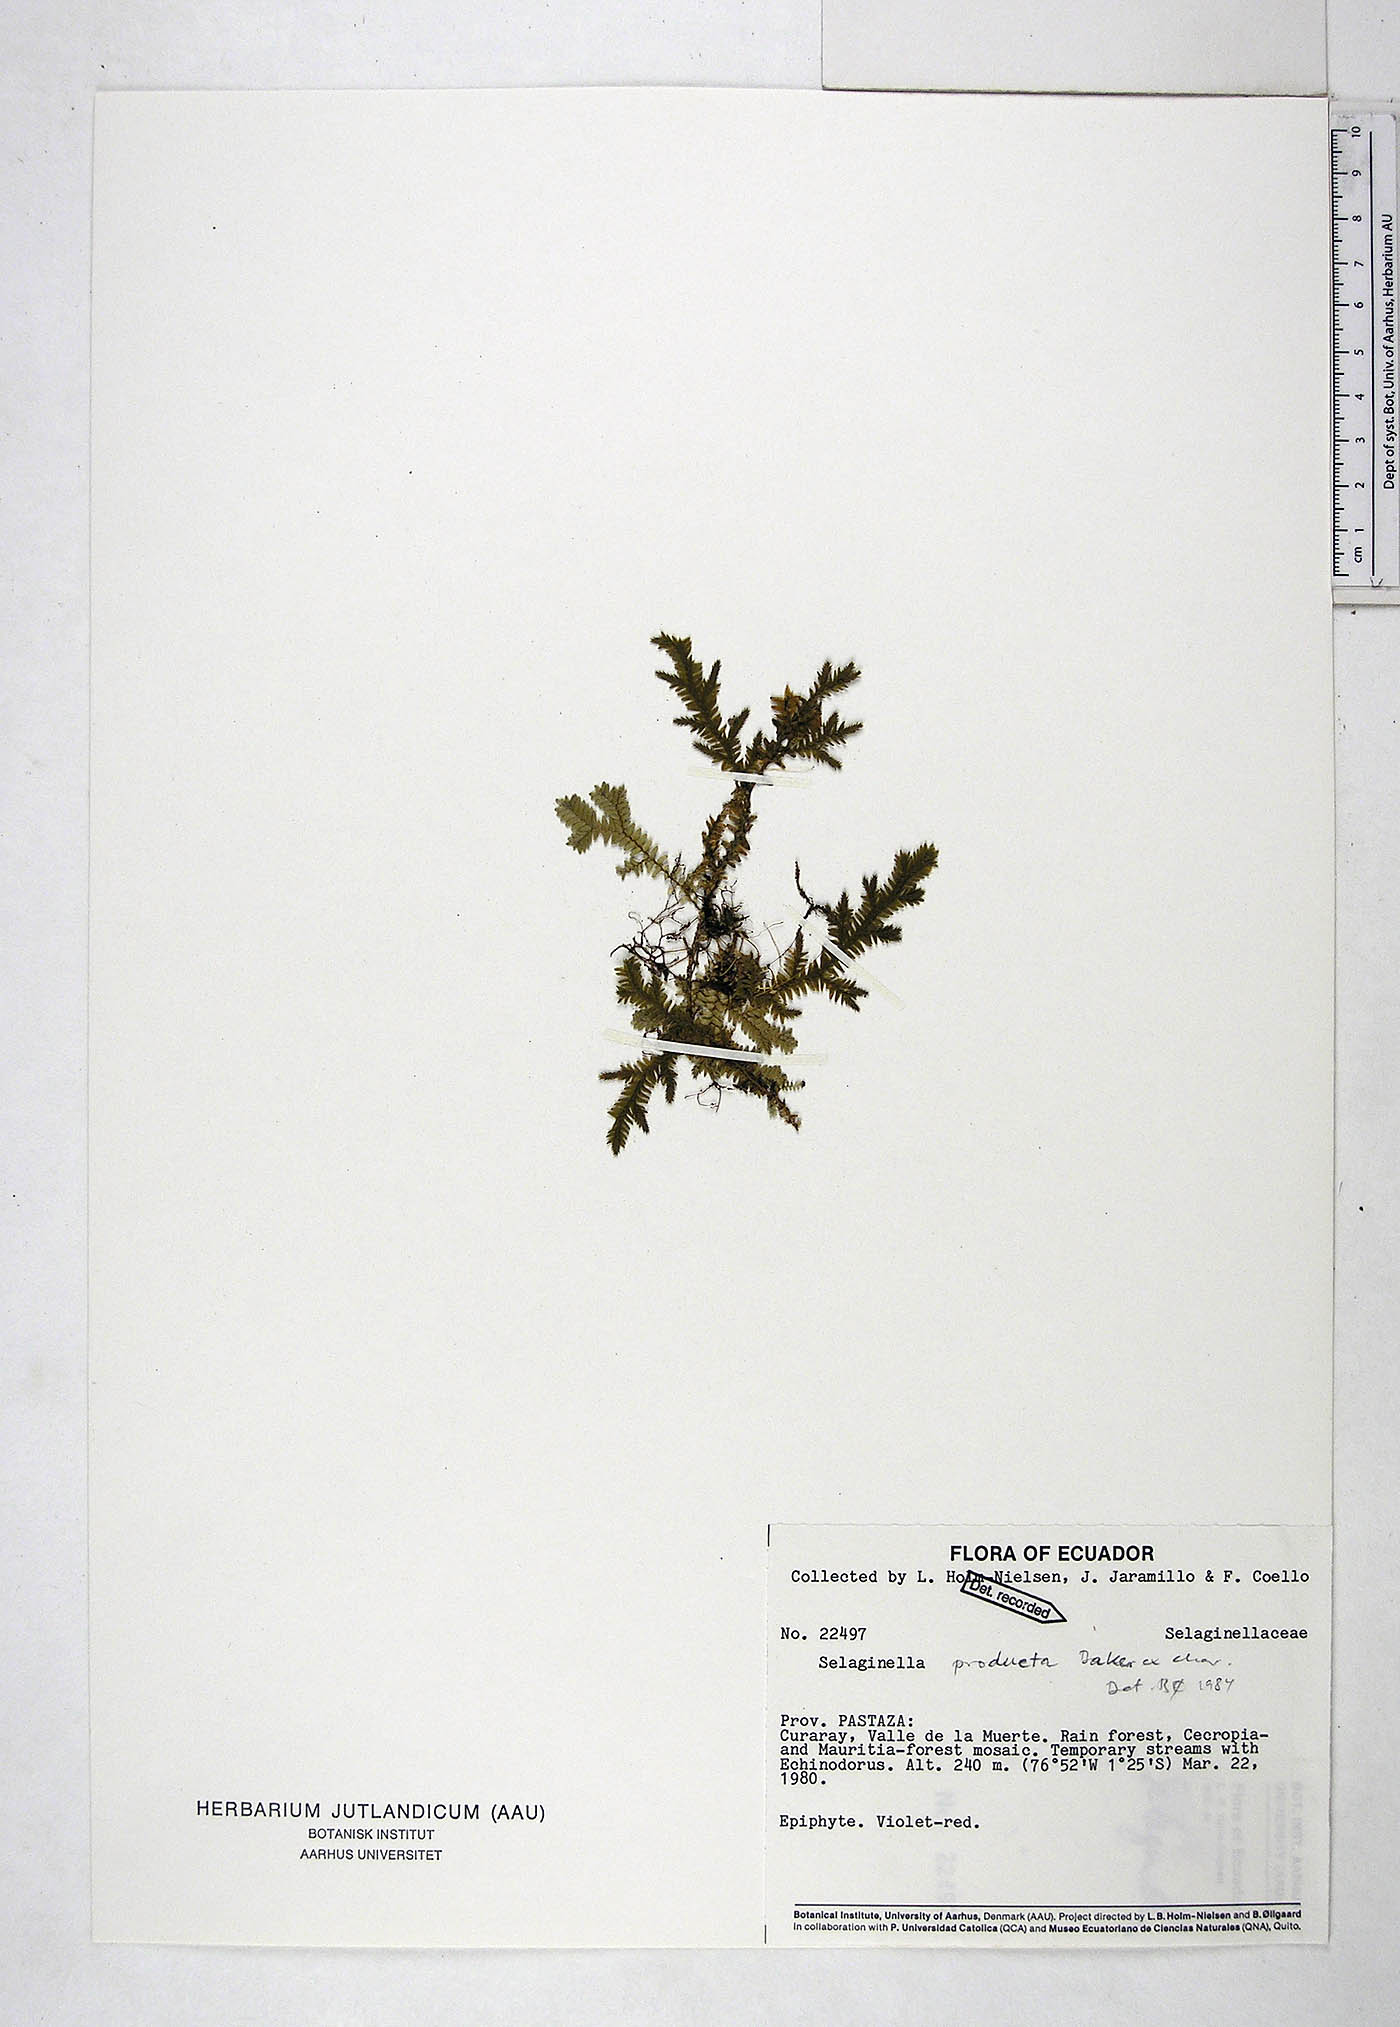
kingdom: Plantae
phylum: Tracheophyta
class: Lycopodiopsida
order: Selaginellales
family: Selaginellaceae
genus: Selaginella
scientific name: Selaginella producta
